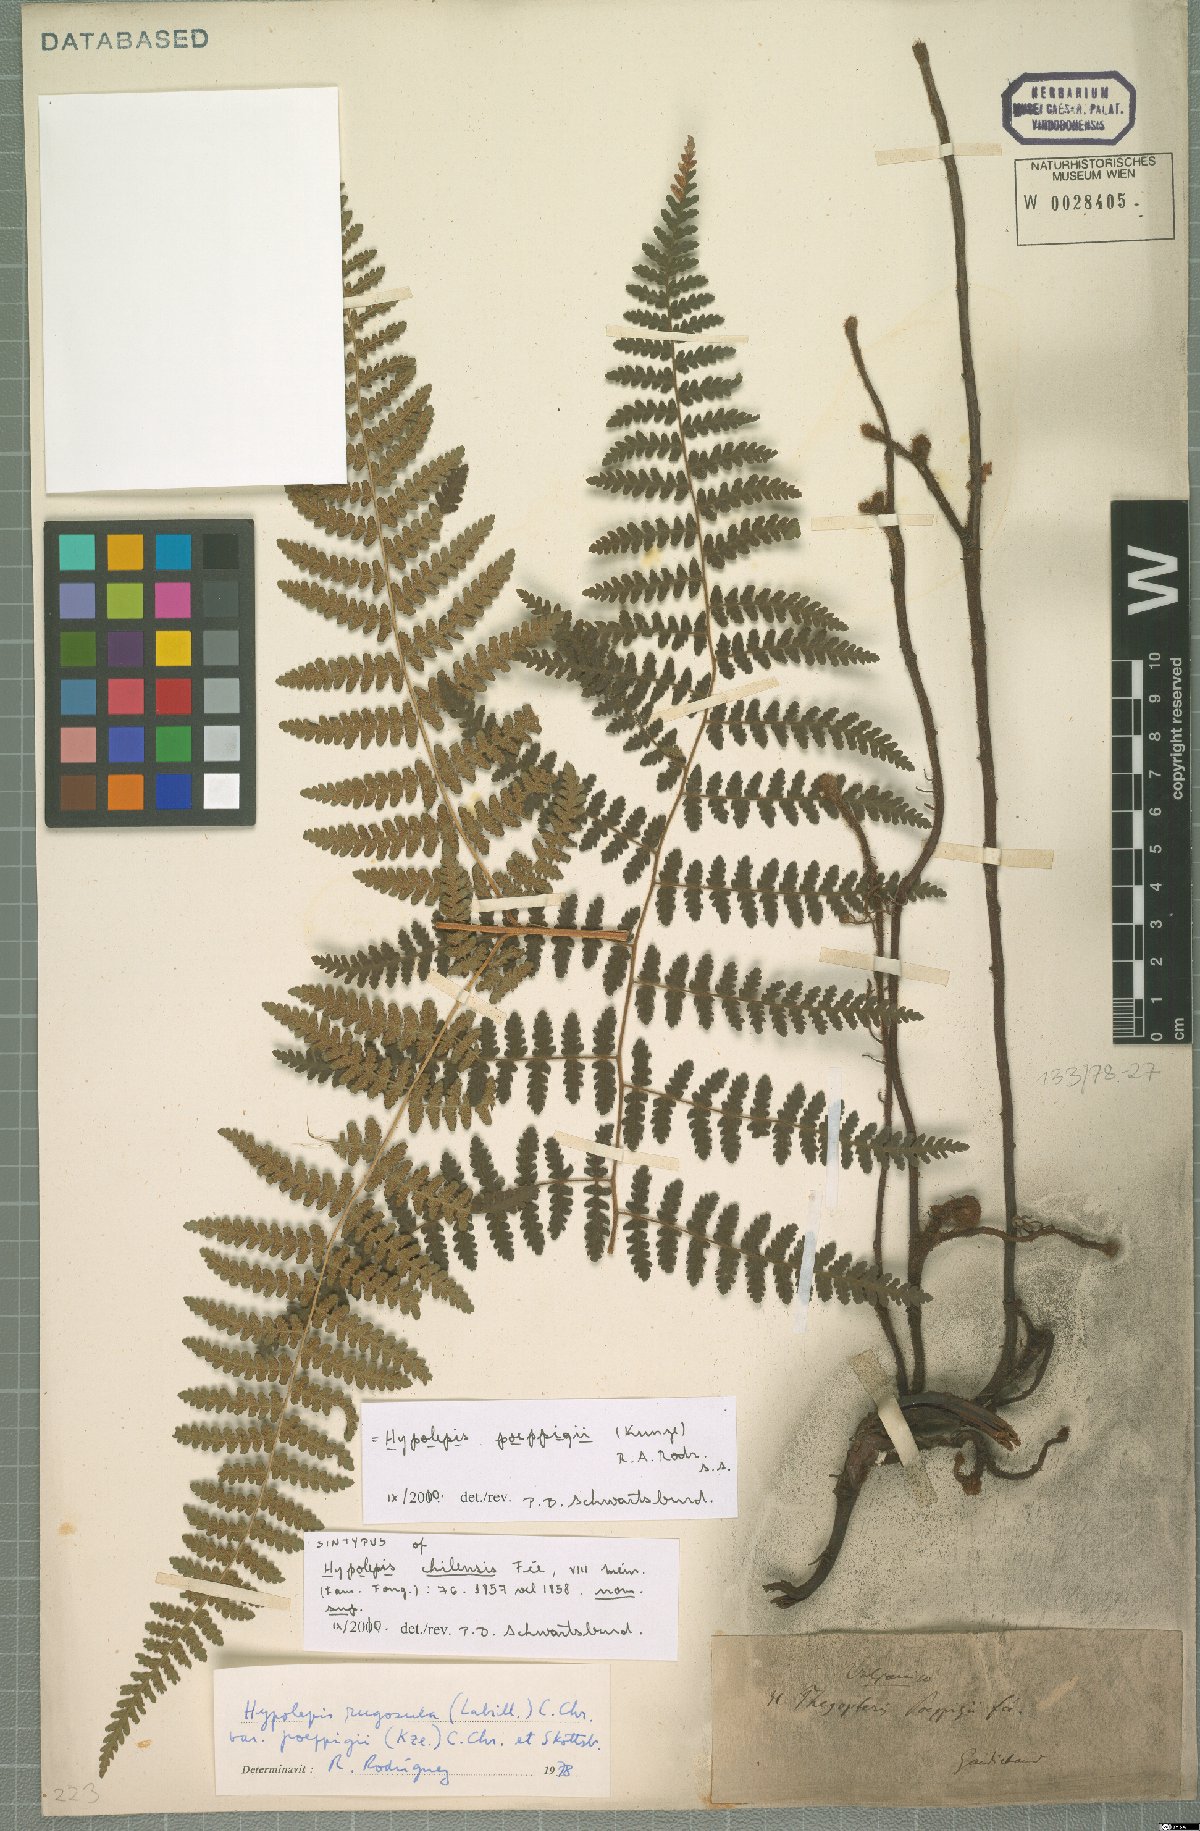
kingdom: Plantae
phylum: Tracheophyta
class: Polypodiopsida
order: Polypodiales
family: Dennstaedtiaceae
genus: Hypolepis
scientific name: Hypolepis poeppigii
